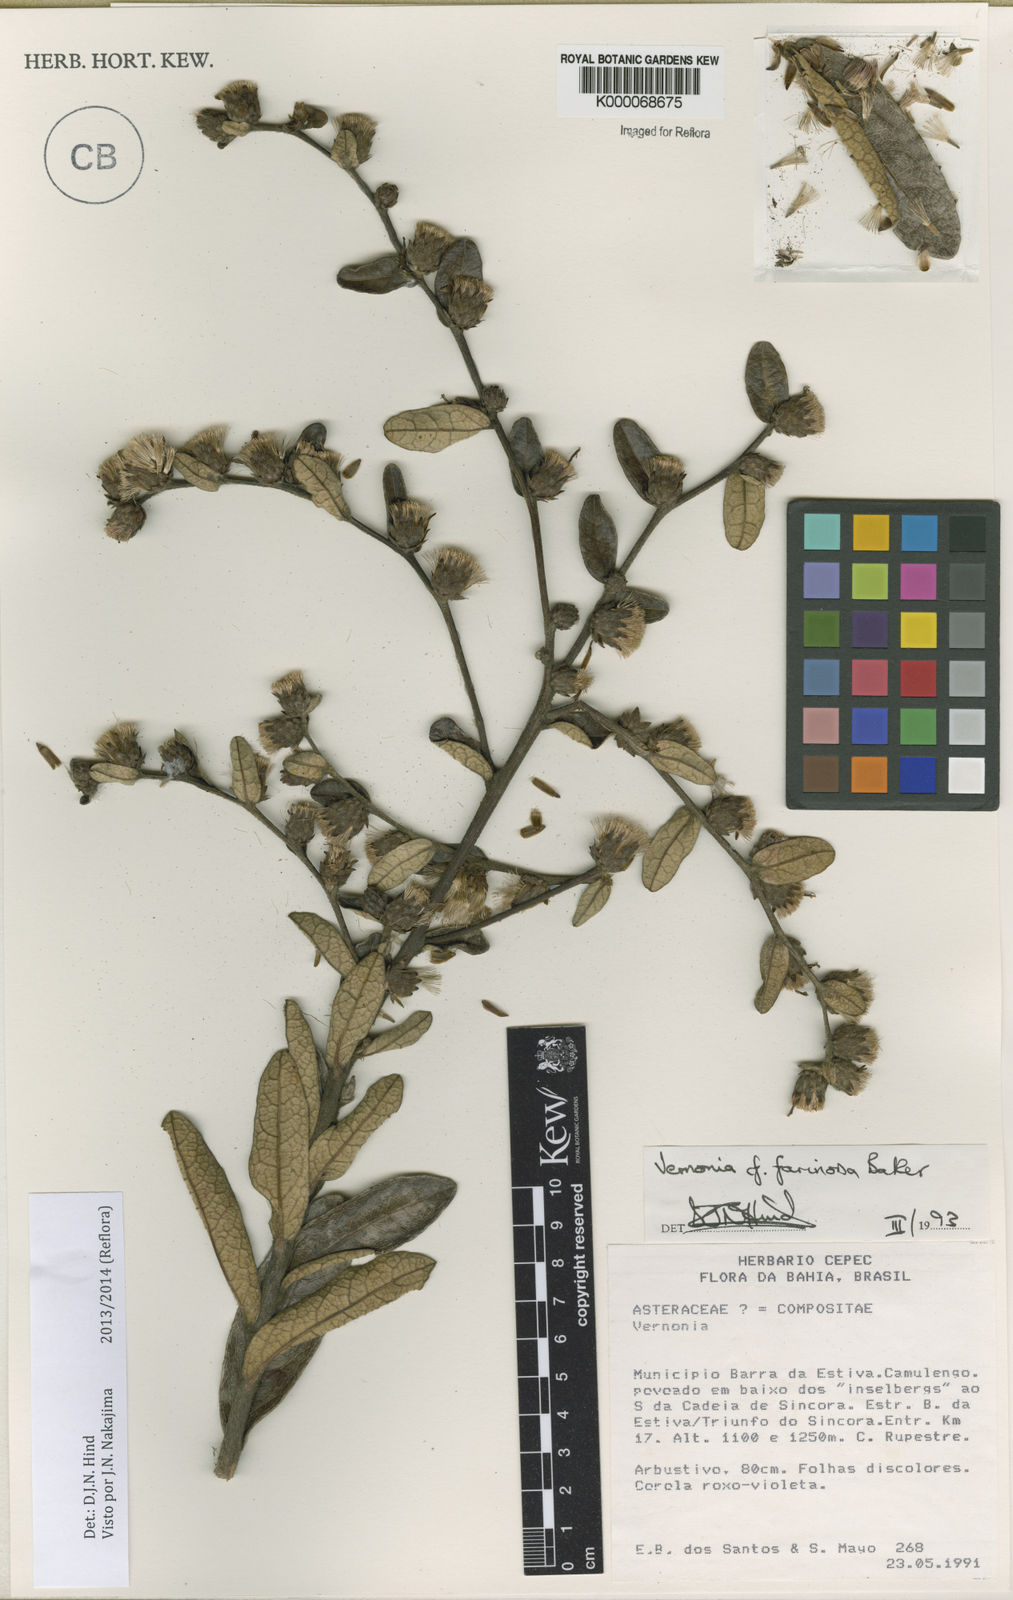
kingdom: Plantae
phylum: Tracheophyta
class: Magnoliopsida
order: Asterales
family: Asteraceae
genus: Lessingianthus
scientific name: Lessingianthus farinosus
